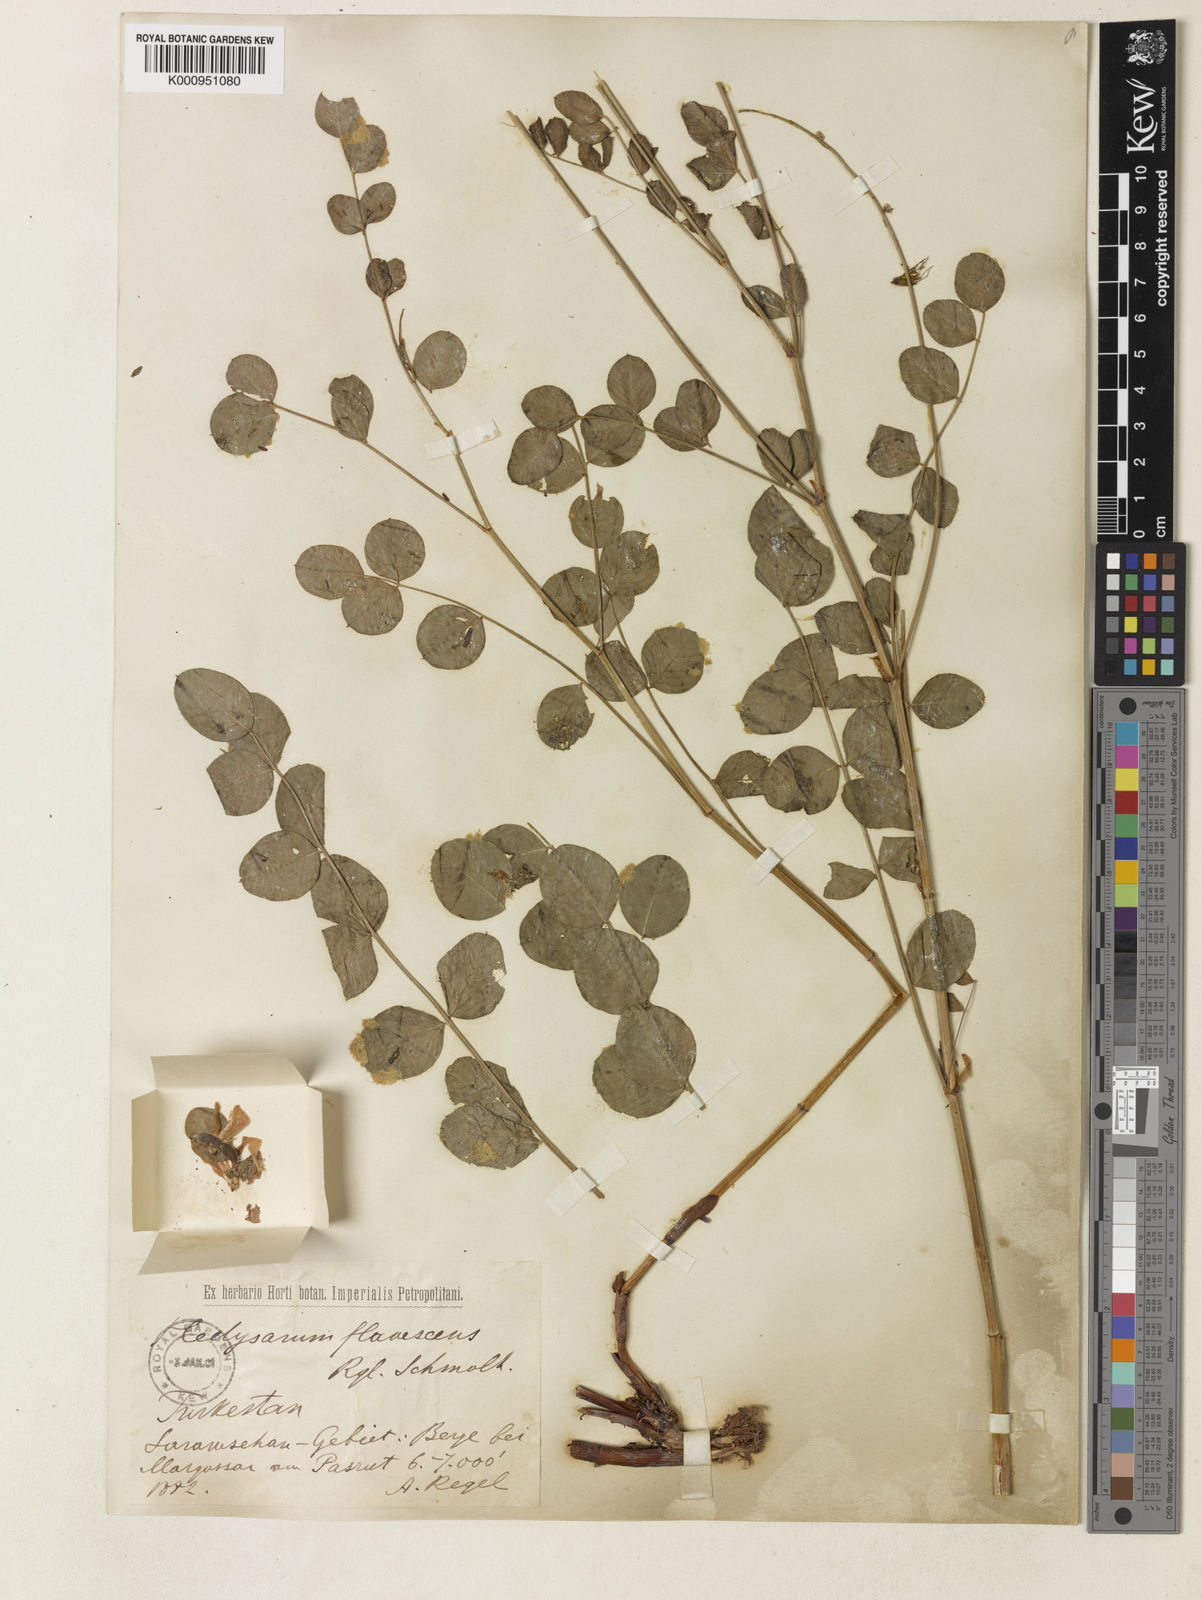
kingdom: Plantae
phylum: Tracheophyta
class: Magnoliopsida
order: Fabales
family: Fabaceae
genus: Hedysarum
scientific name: Hedysarum flavescens
